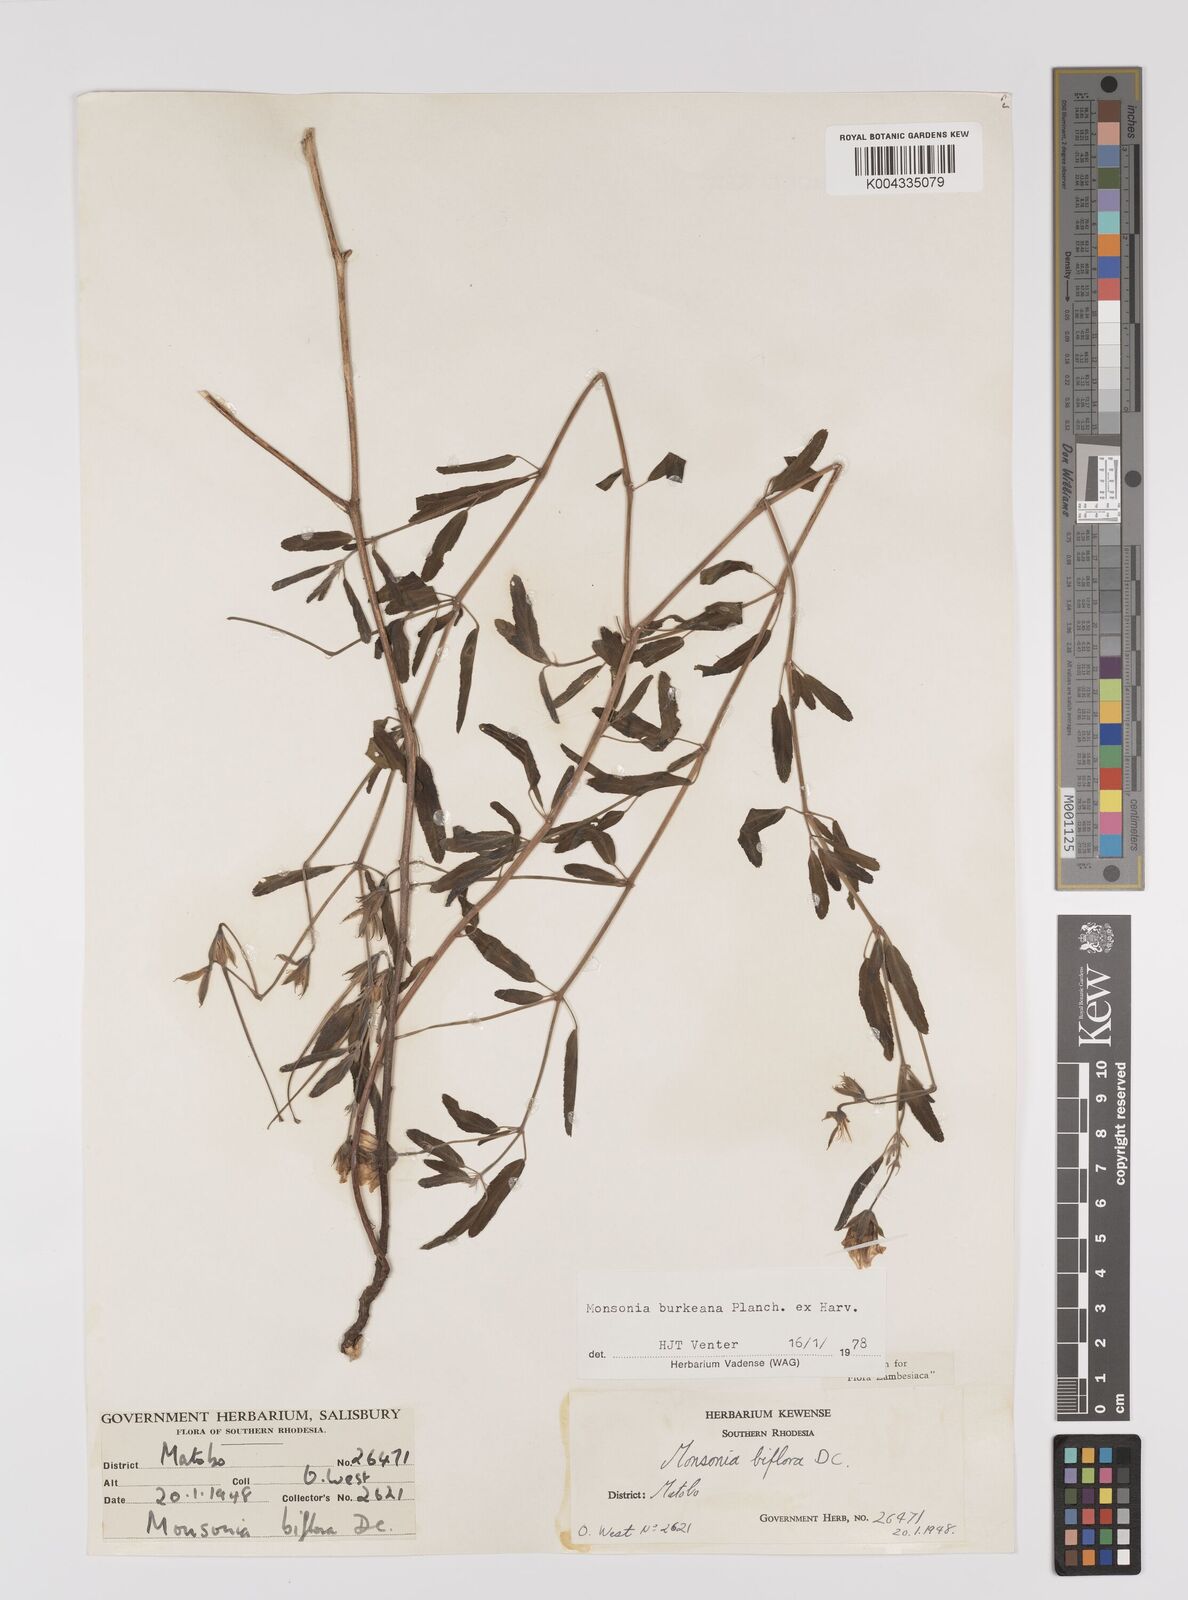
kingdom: Plantae
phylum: Tracheophyta
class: Magnoliopsida
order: Geraniales
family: Geraniaceae
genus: Monsonia
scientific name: Monsonia biflora
